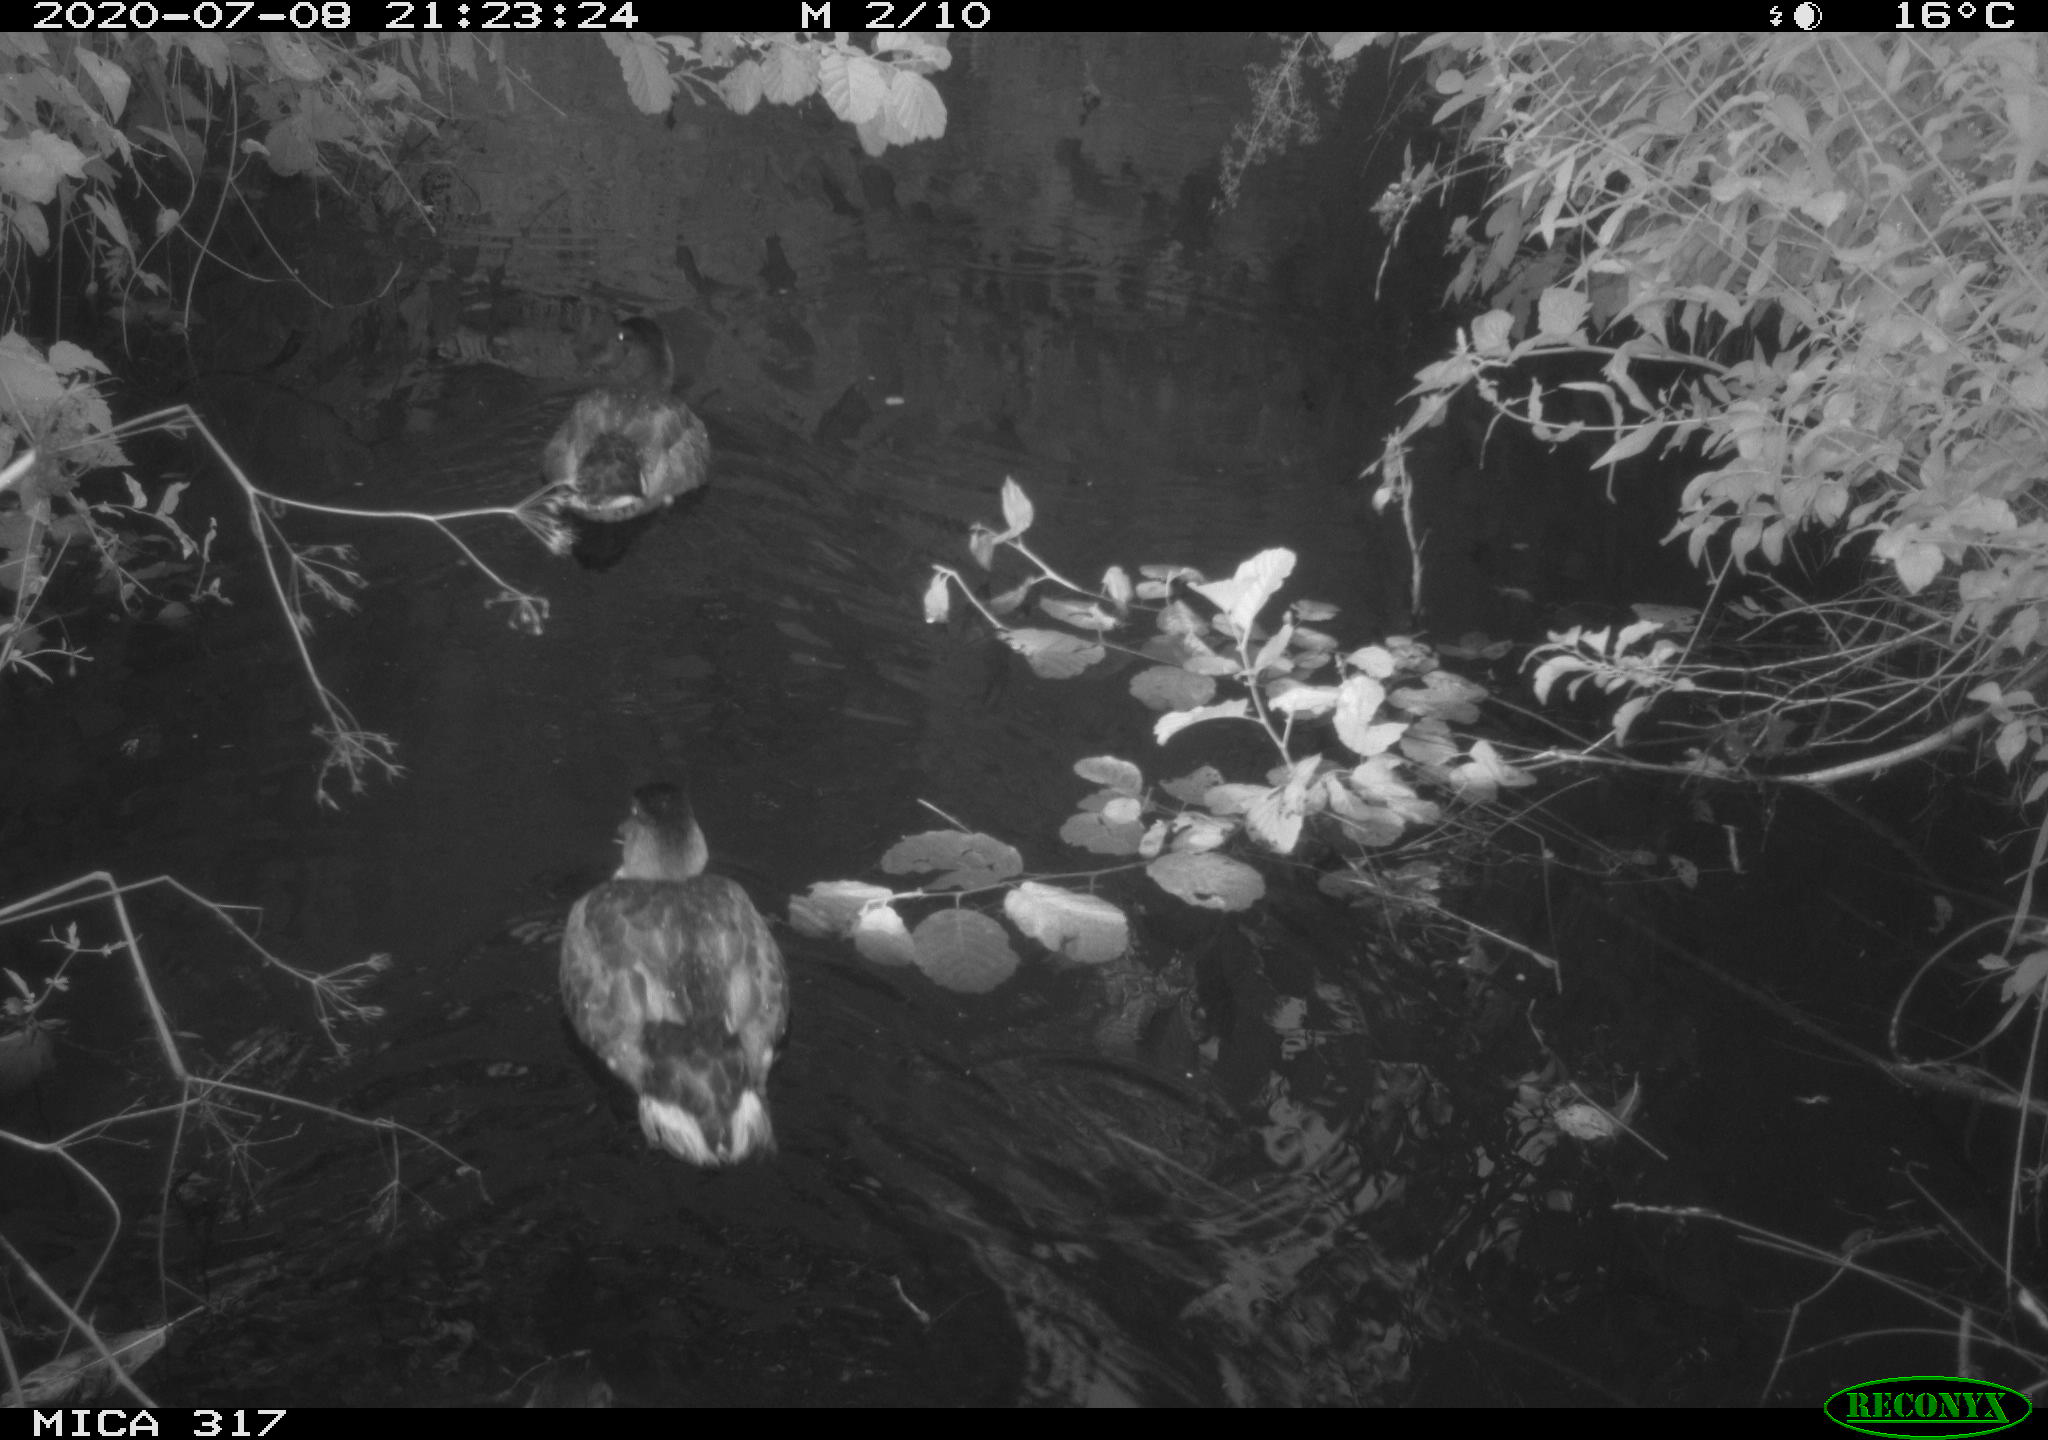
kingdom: Animalia
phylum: Chordata
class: Aves
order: Anseriformes
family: Anatidae
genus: Anas
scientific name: Anas platyrhynchos
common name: Mallard
